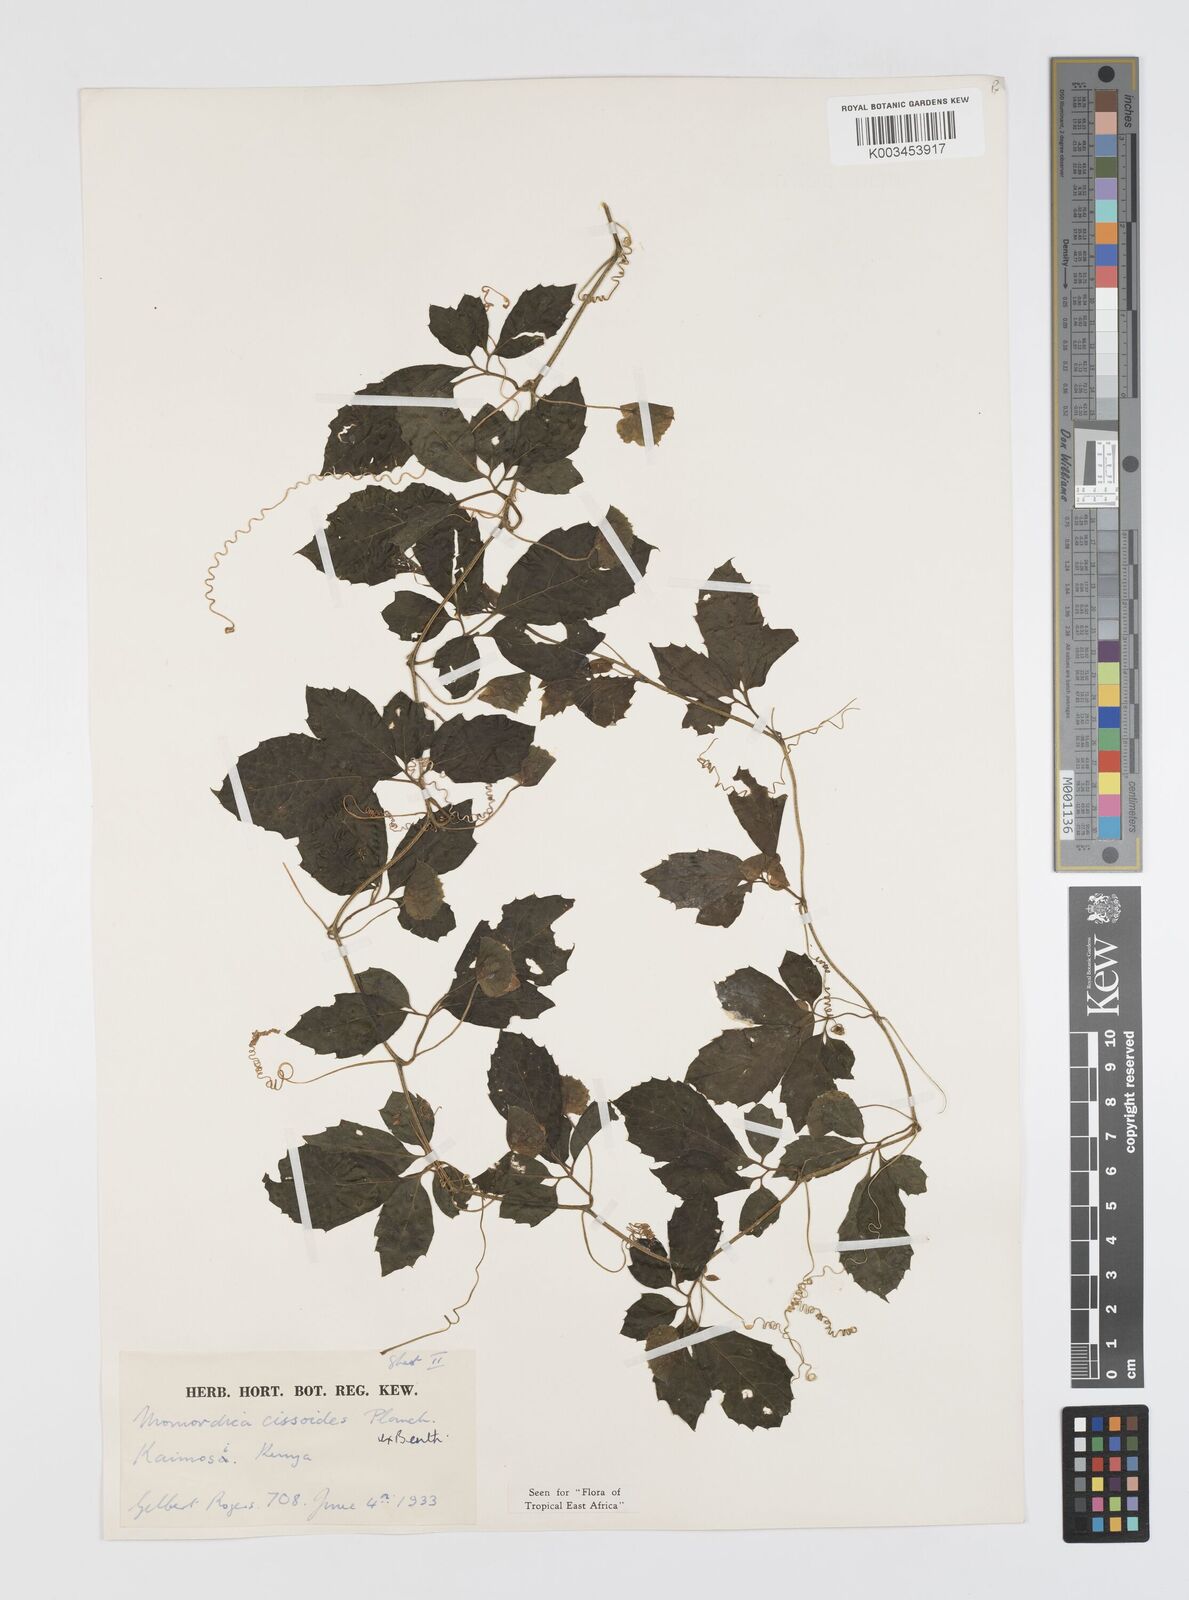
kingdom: Plantae
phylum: Tracheophyta
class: Magnoliopsida
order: Cucurbitales
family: Cucurbitaceae
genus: Momordica
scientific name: Momordica cissoides
